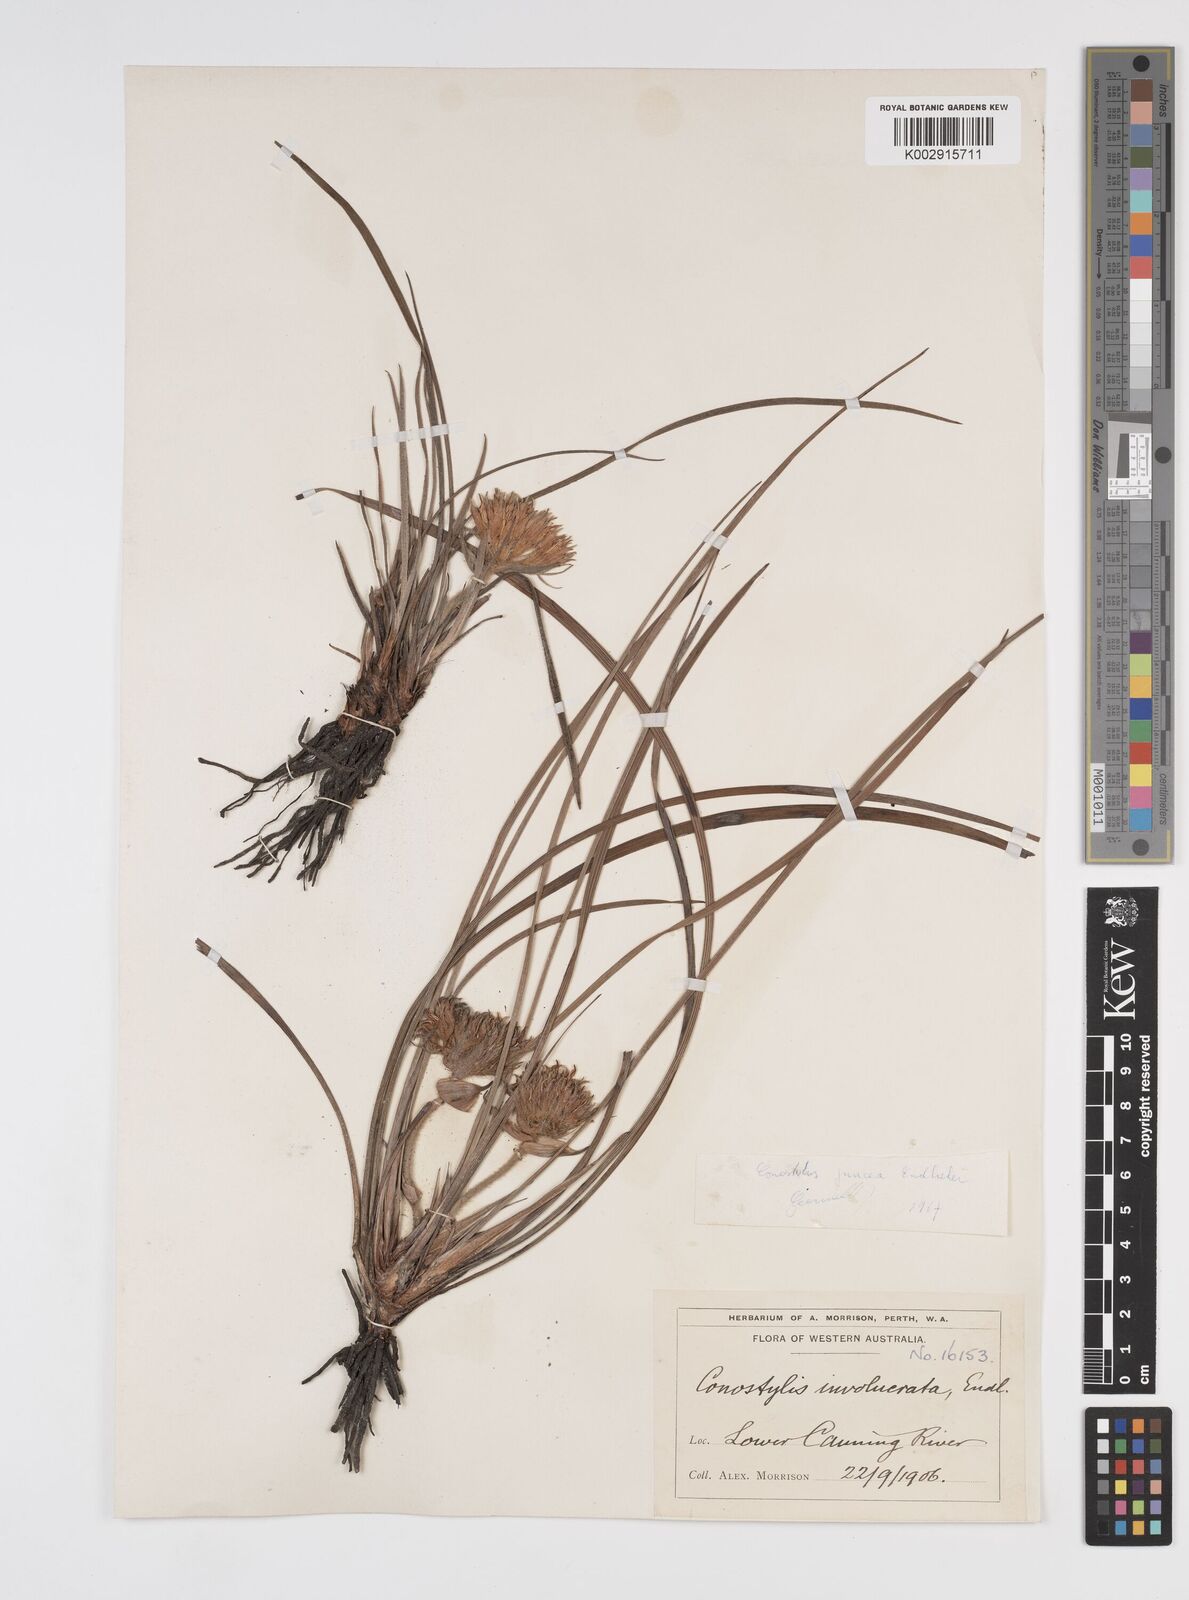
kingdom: Plantae
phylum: Tracheophyta
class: Liliopsida
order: Commelinales
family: Haemodoraceae
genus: Conostylis
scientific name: Conostylis juncea
